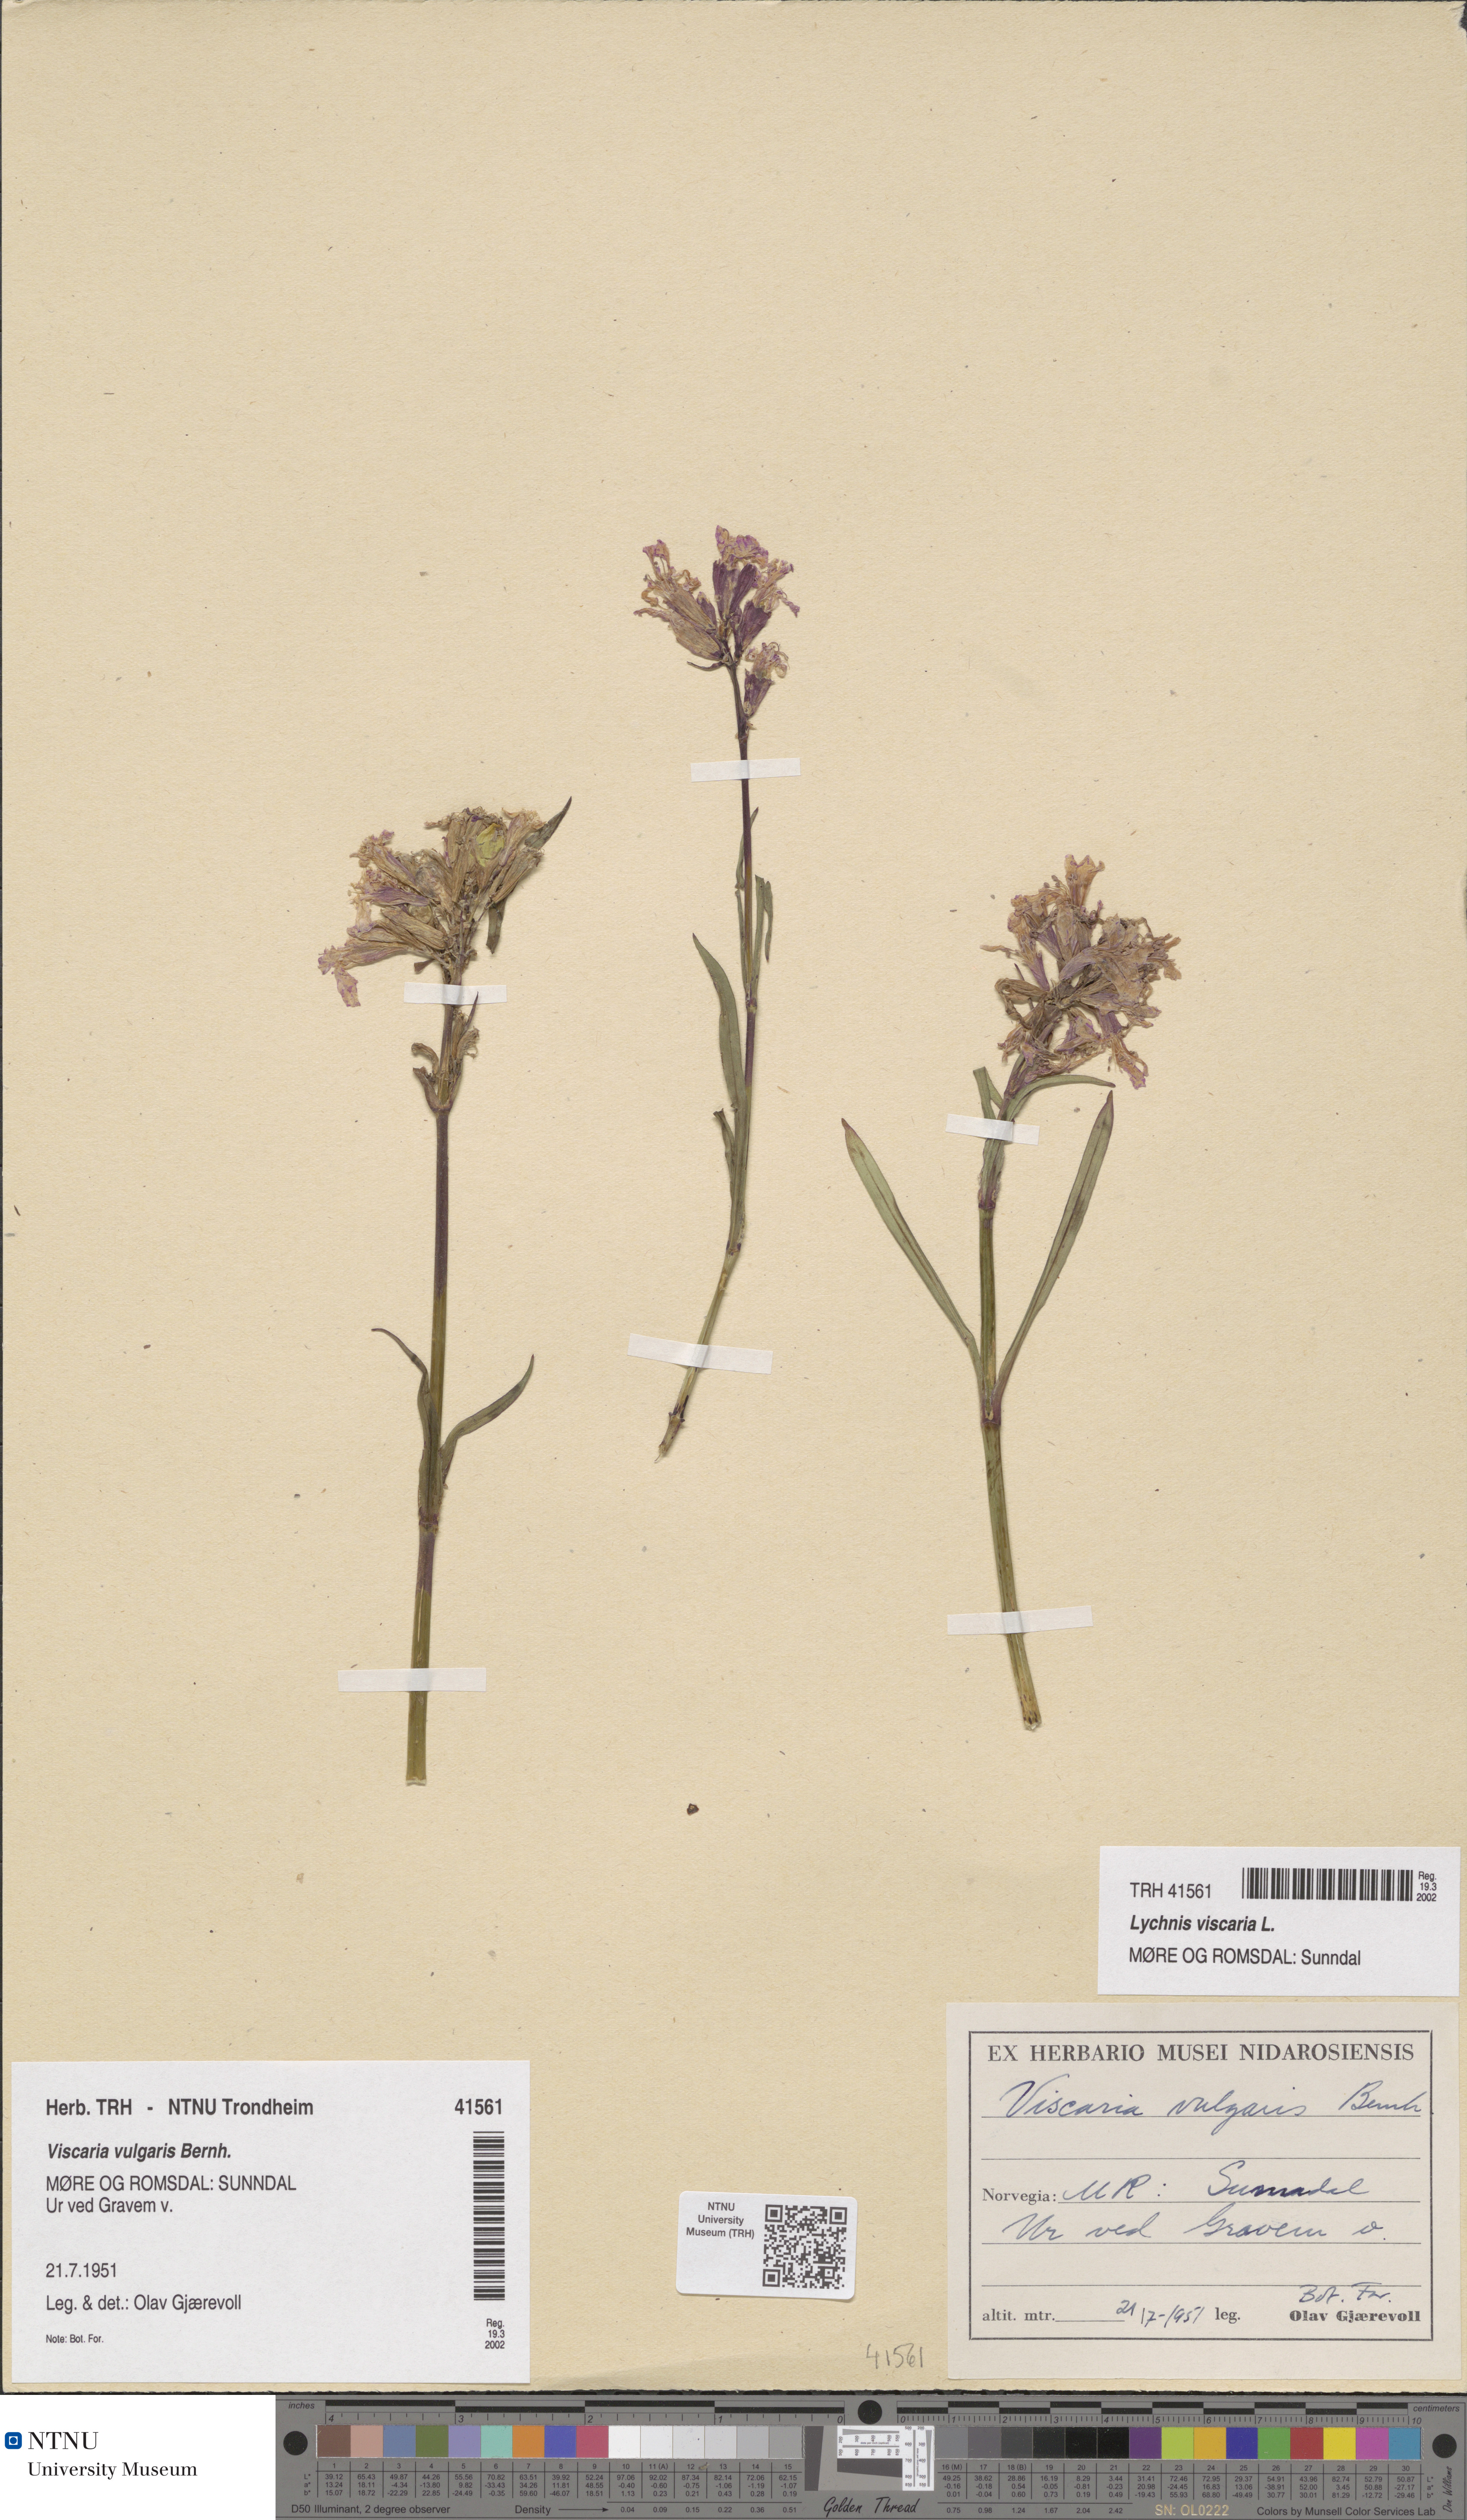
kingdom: Plantae
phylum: Tracheophyta
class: Magnoliopsida
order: Caryophyllales
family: Caryophyllaceae
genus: Viscaria
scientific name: Viscaria vulgaris
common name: Clammy campion
